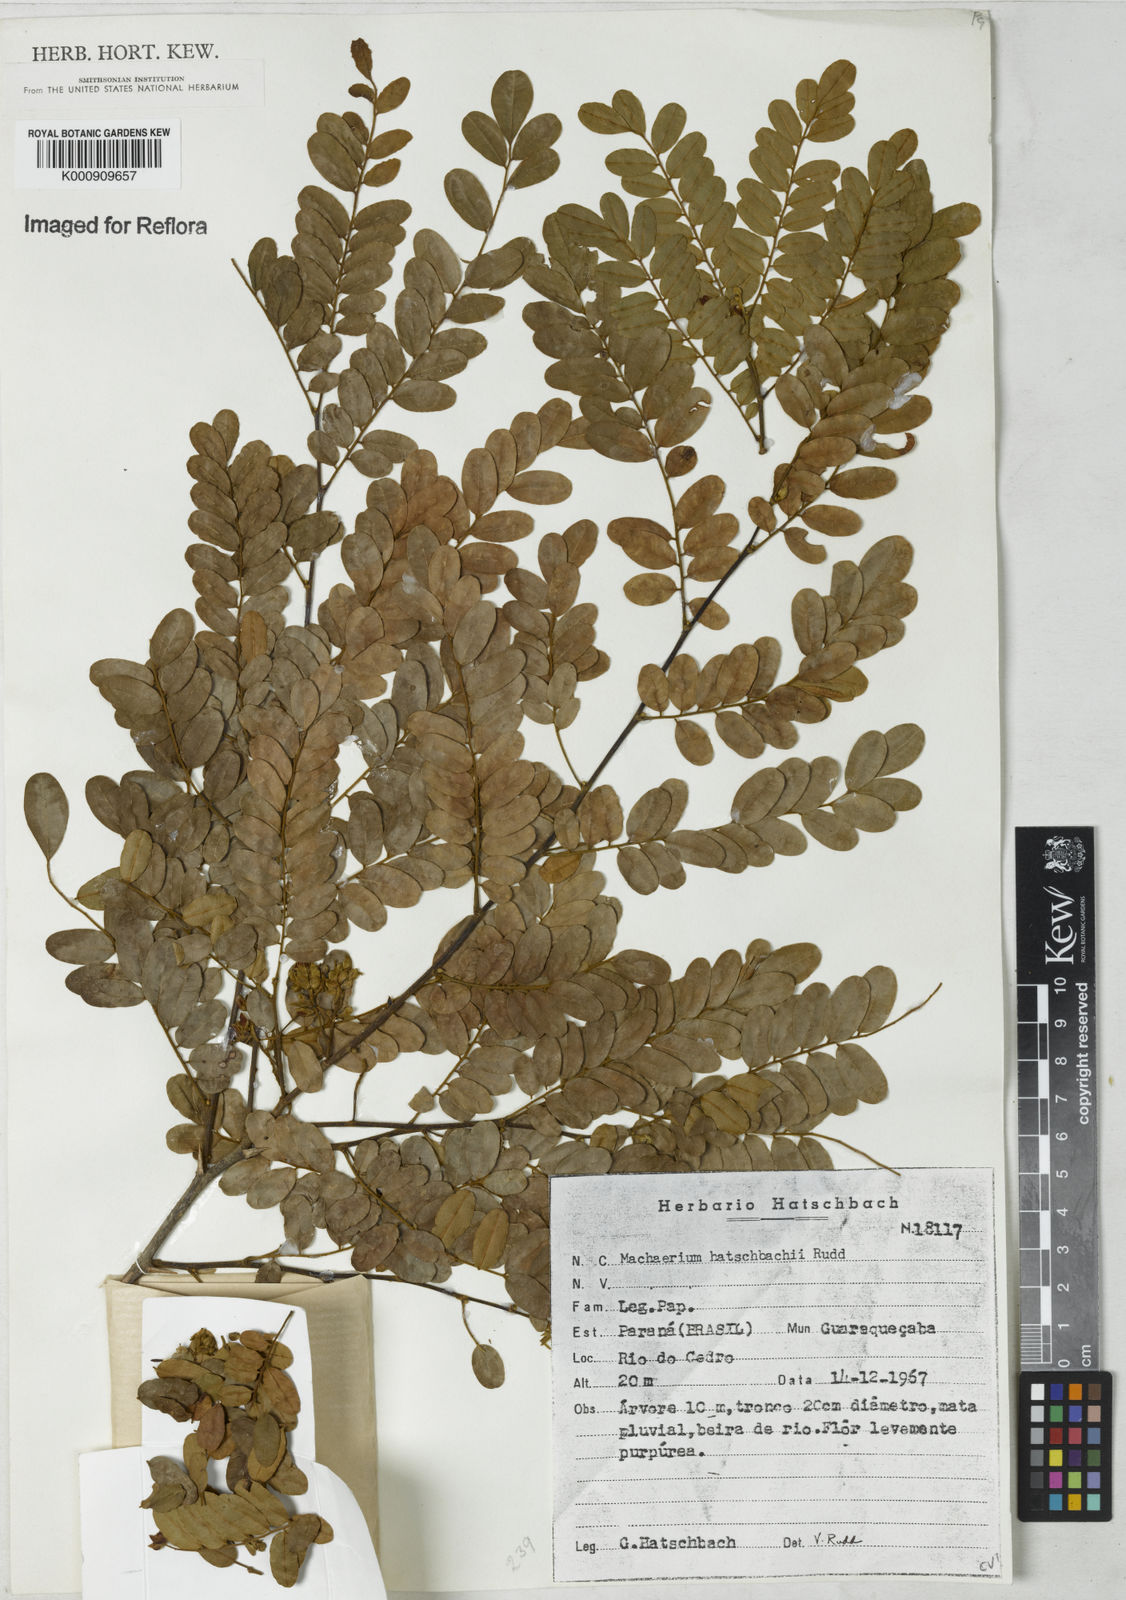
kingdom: Plantae
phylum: Tracheophyta
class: Magnoliopsida
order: Fabales
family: Fabaceae
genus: Machaerium
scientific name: Machaerium hatschbachii
